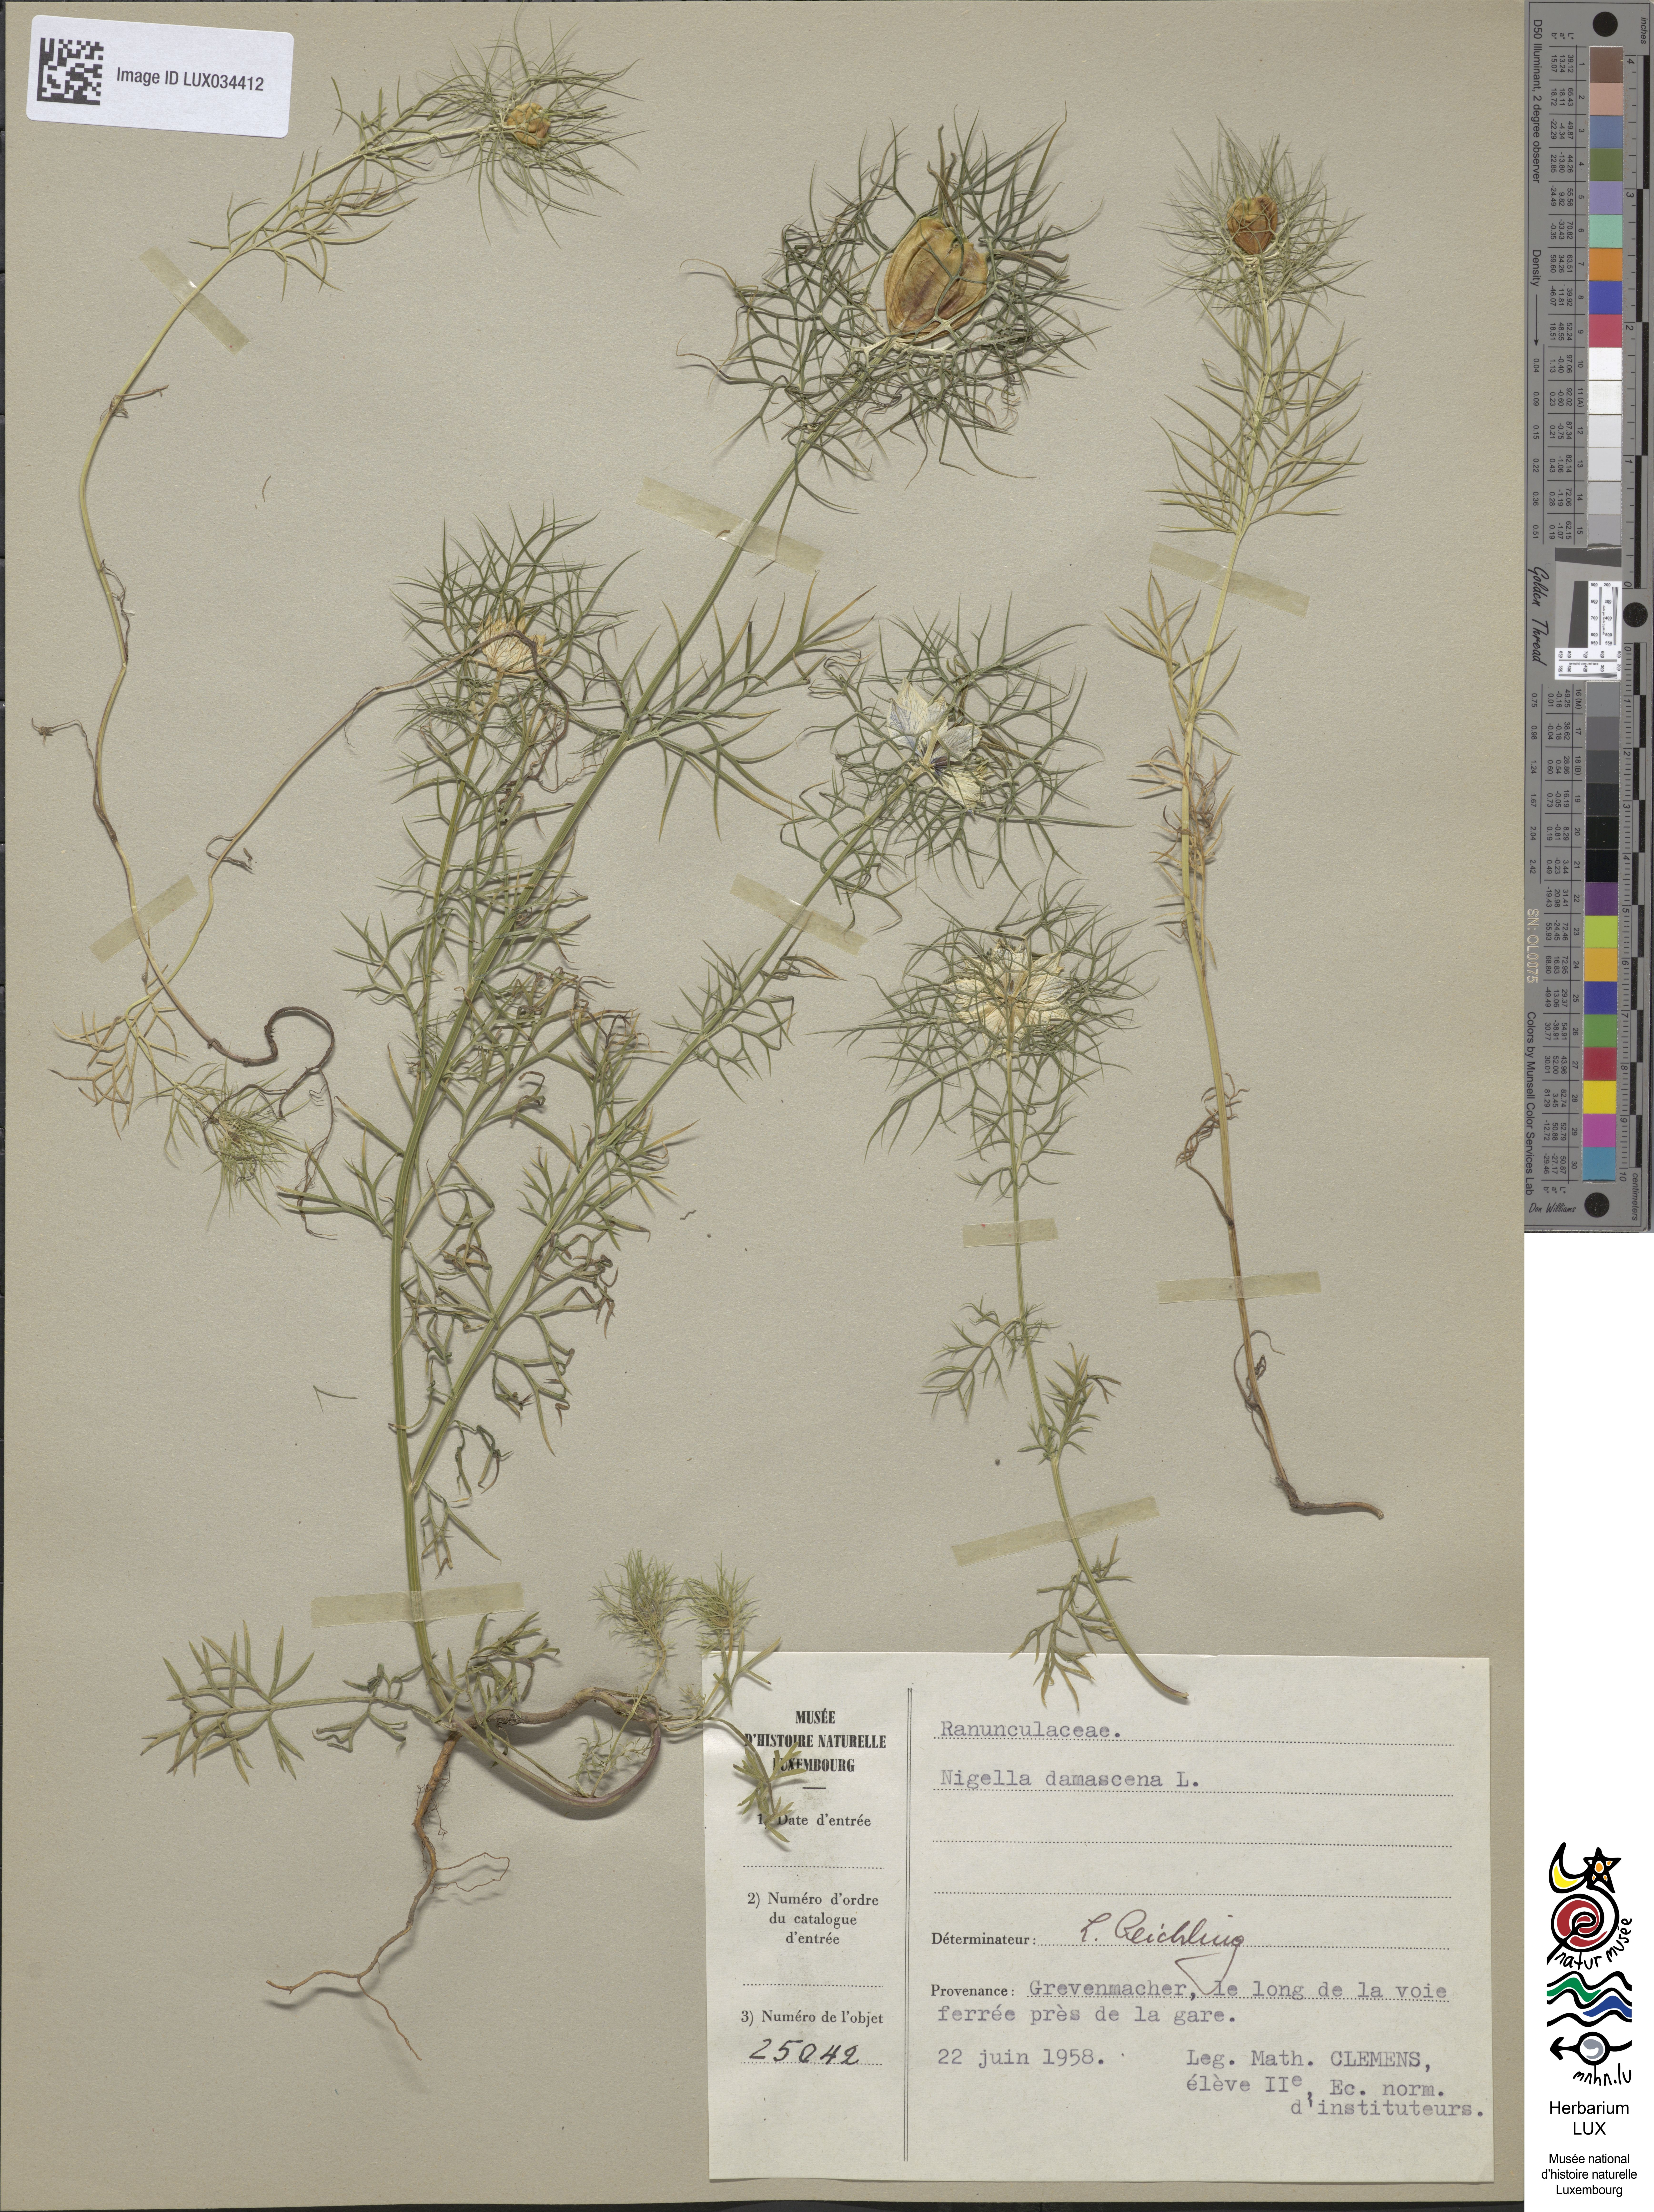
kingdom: Plantae
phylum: Tracheophyta
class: Magnoliopsida
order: Ranunculales
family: Ranunculaceae
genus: Nigella
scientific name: Nigella damascena
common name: Love-in-a-mist
